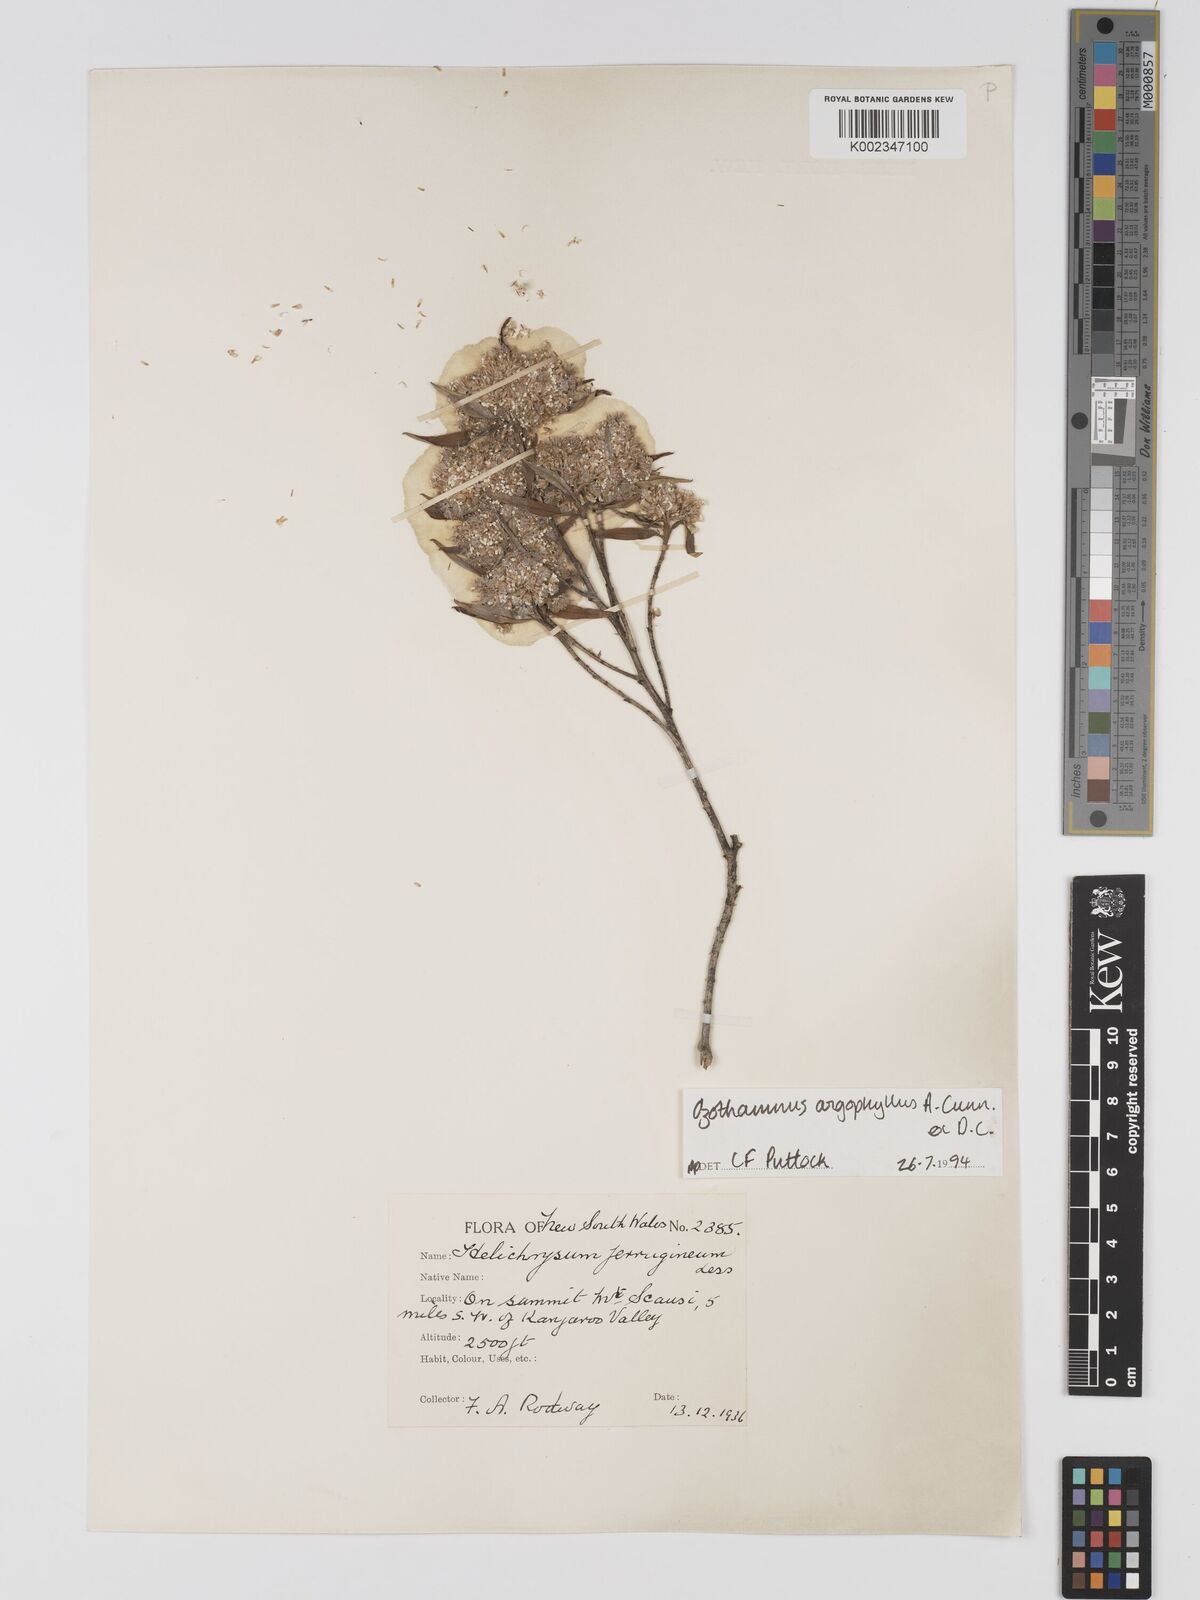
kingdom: Plantae
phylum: Tracheophyta
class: Magnoliopsida
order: Asterales
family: Asteraceae
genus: Ozothamnus
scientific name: Ozothamnus argophyllus
